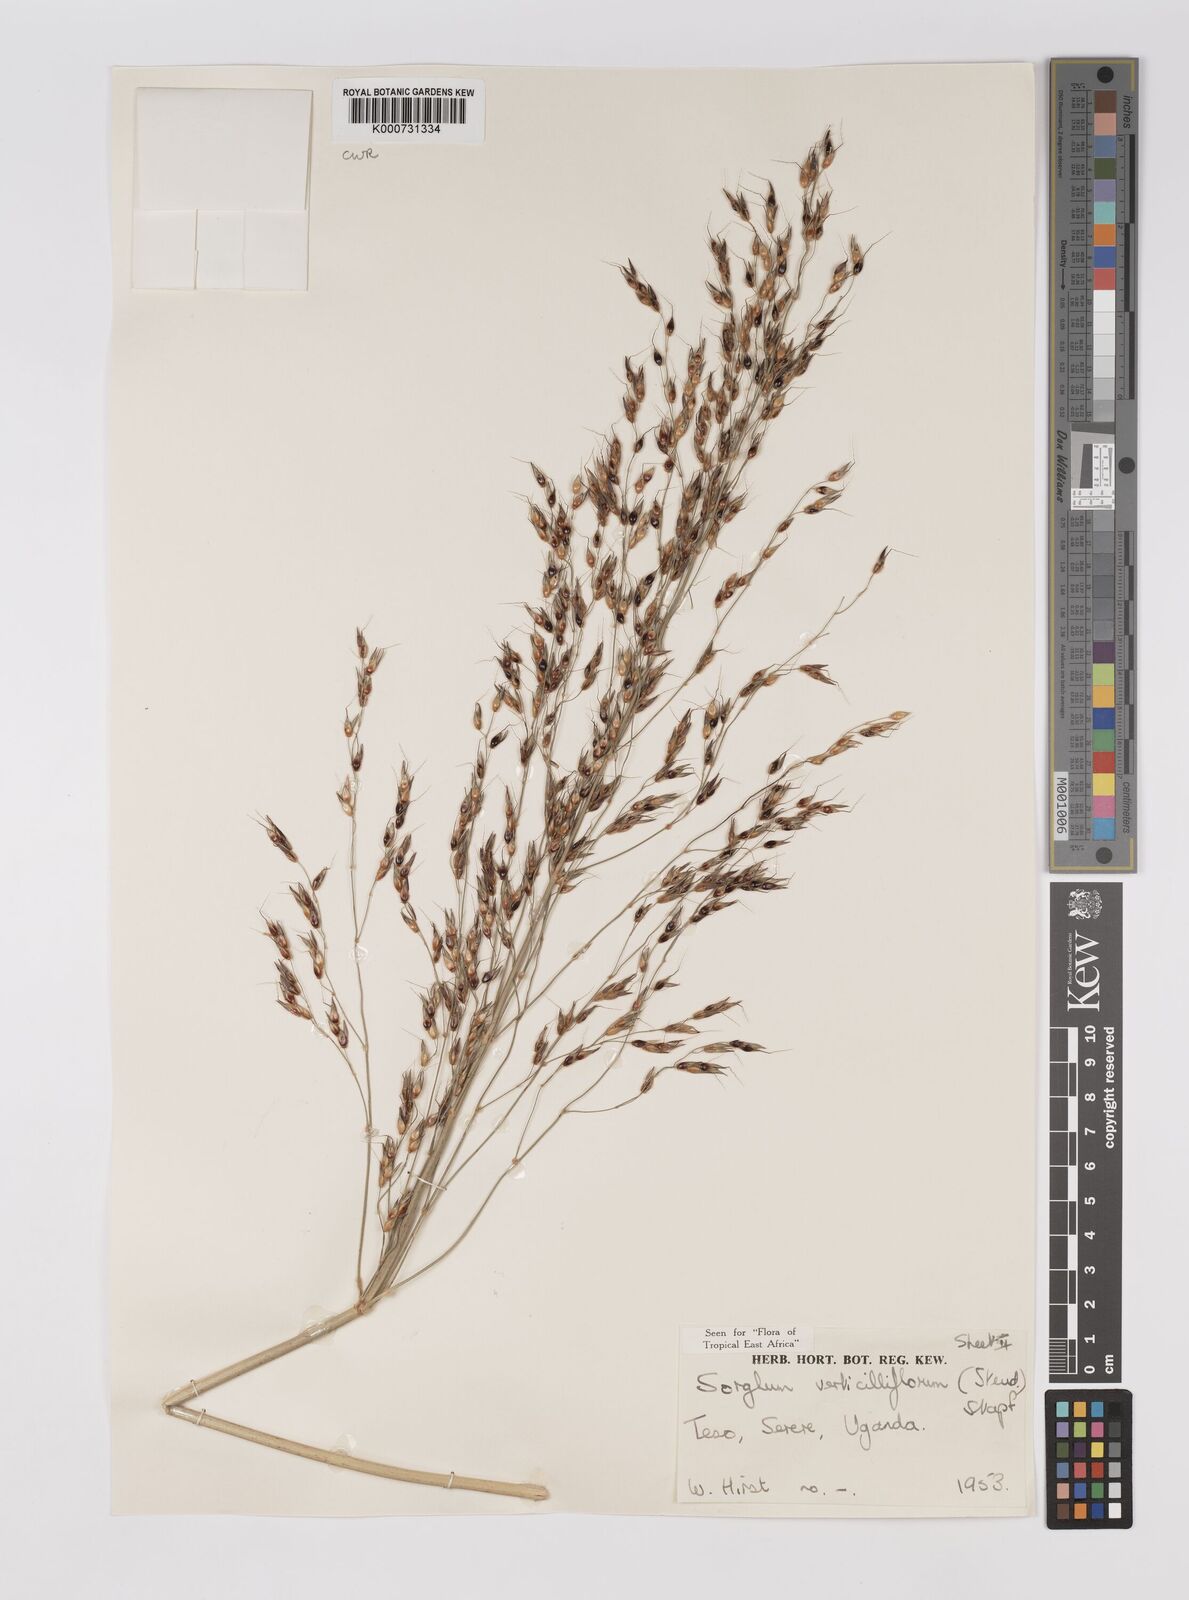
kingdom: Plantae
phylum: Tracheophyta
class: Liliopsida
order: Poales
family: Poaceae
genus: Sorghum
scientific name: Sorghum arundinaceum
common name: Sorghum
